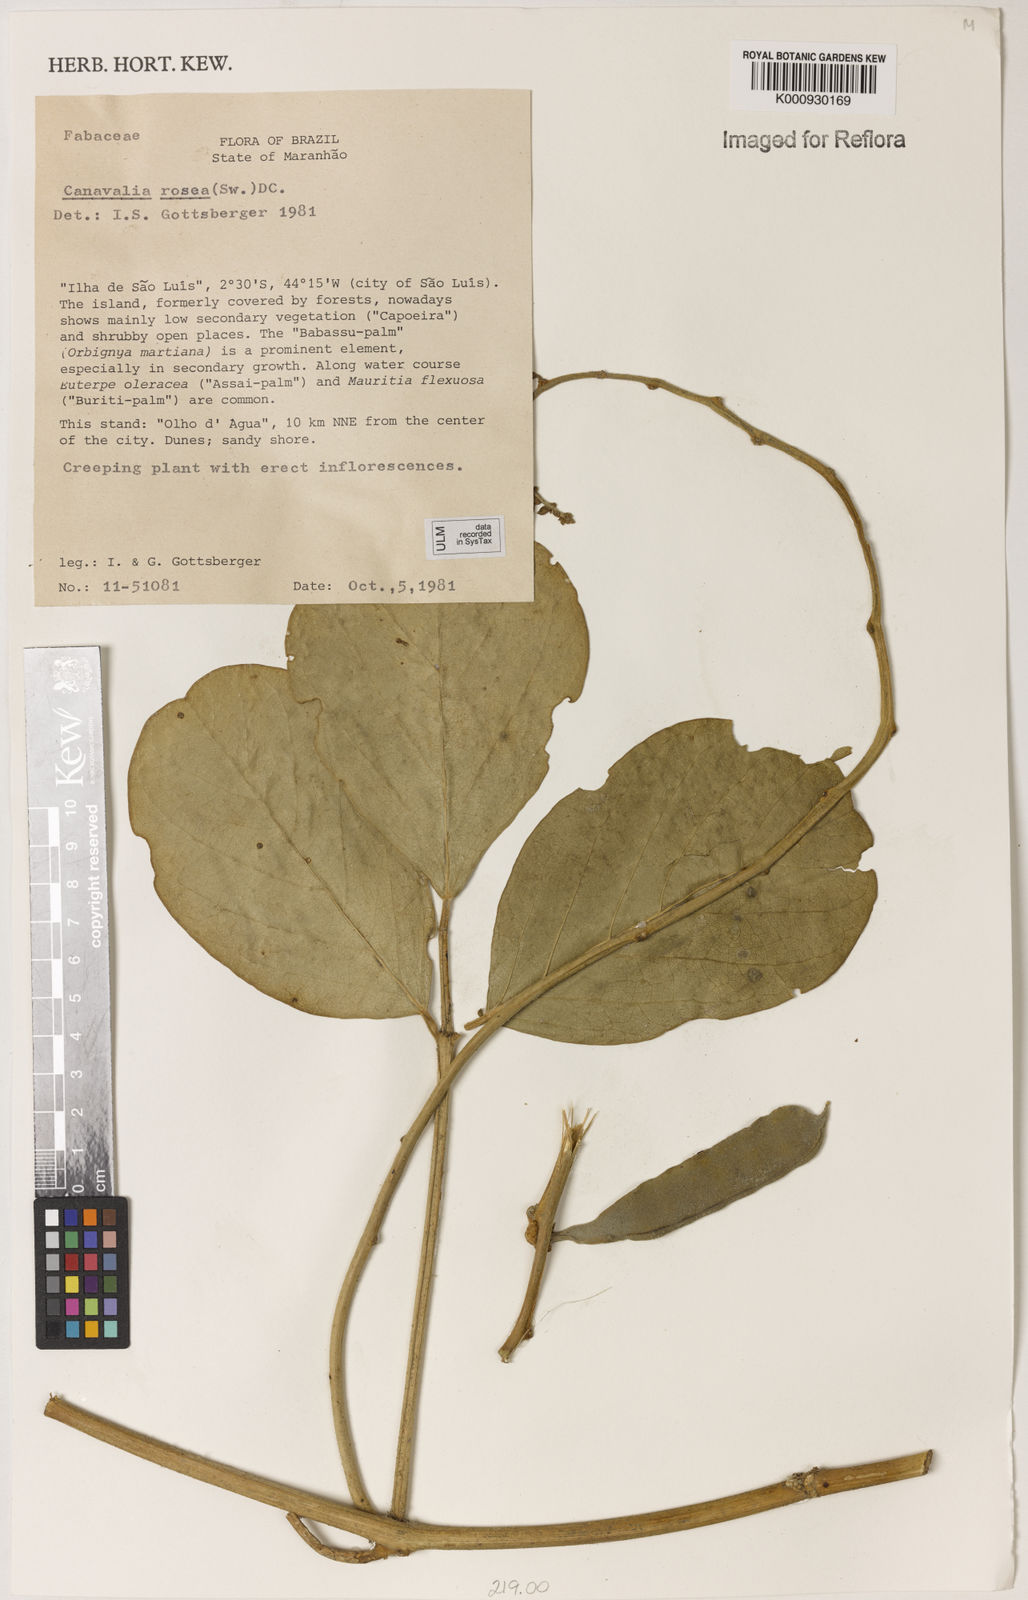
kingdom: Plantae
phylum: Tracheophyta
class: Magnoliopsida
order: Fabales
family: Fabaceae
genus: Canavalia
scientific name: Canavalia rosea
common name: Beach-bean
